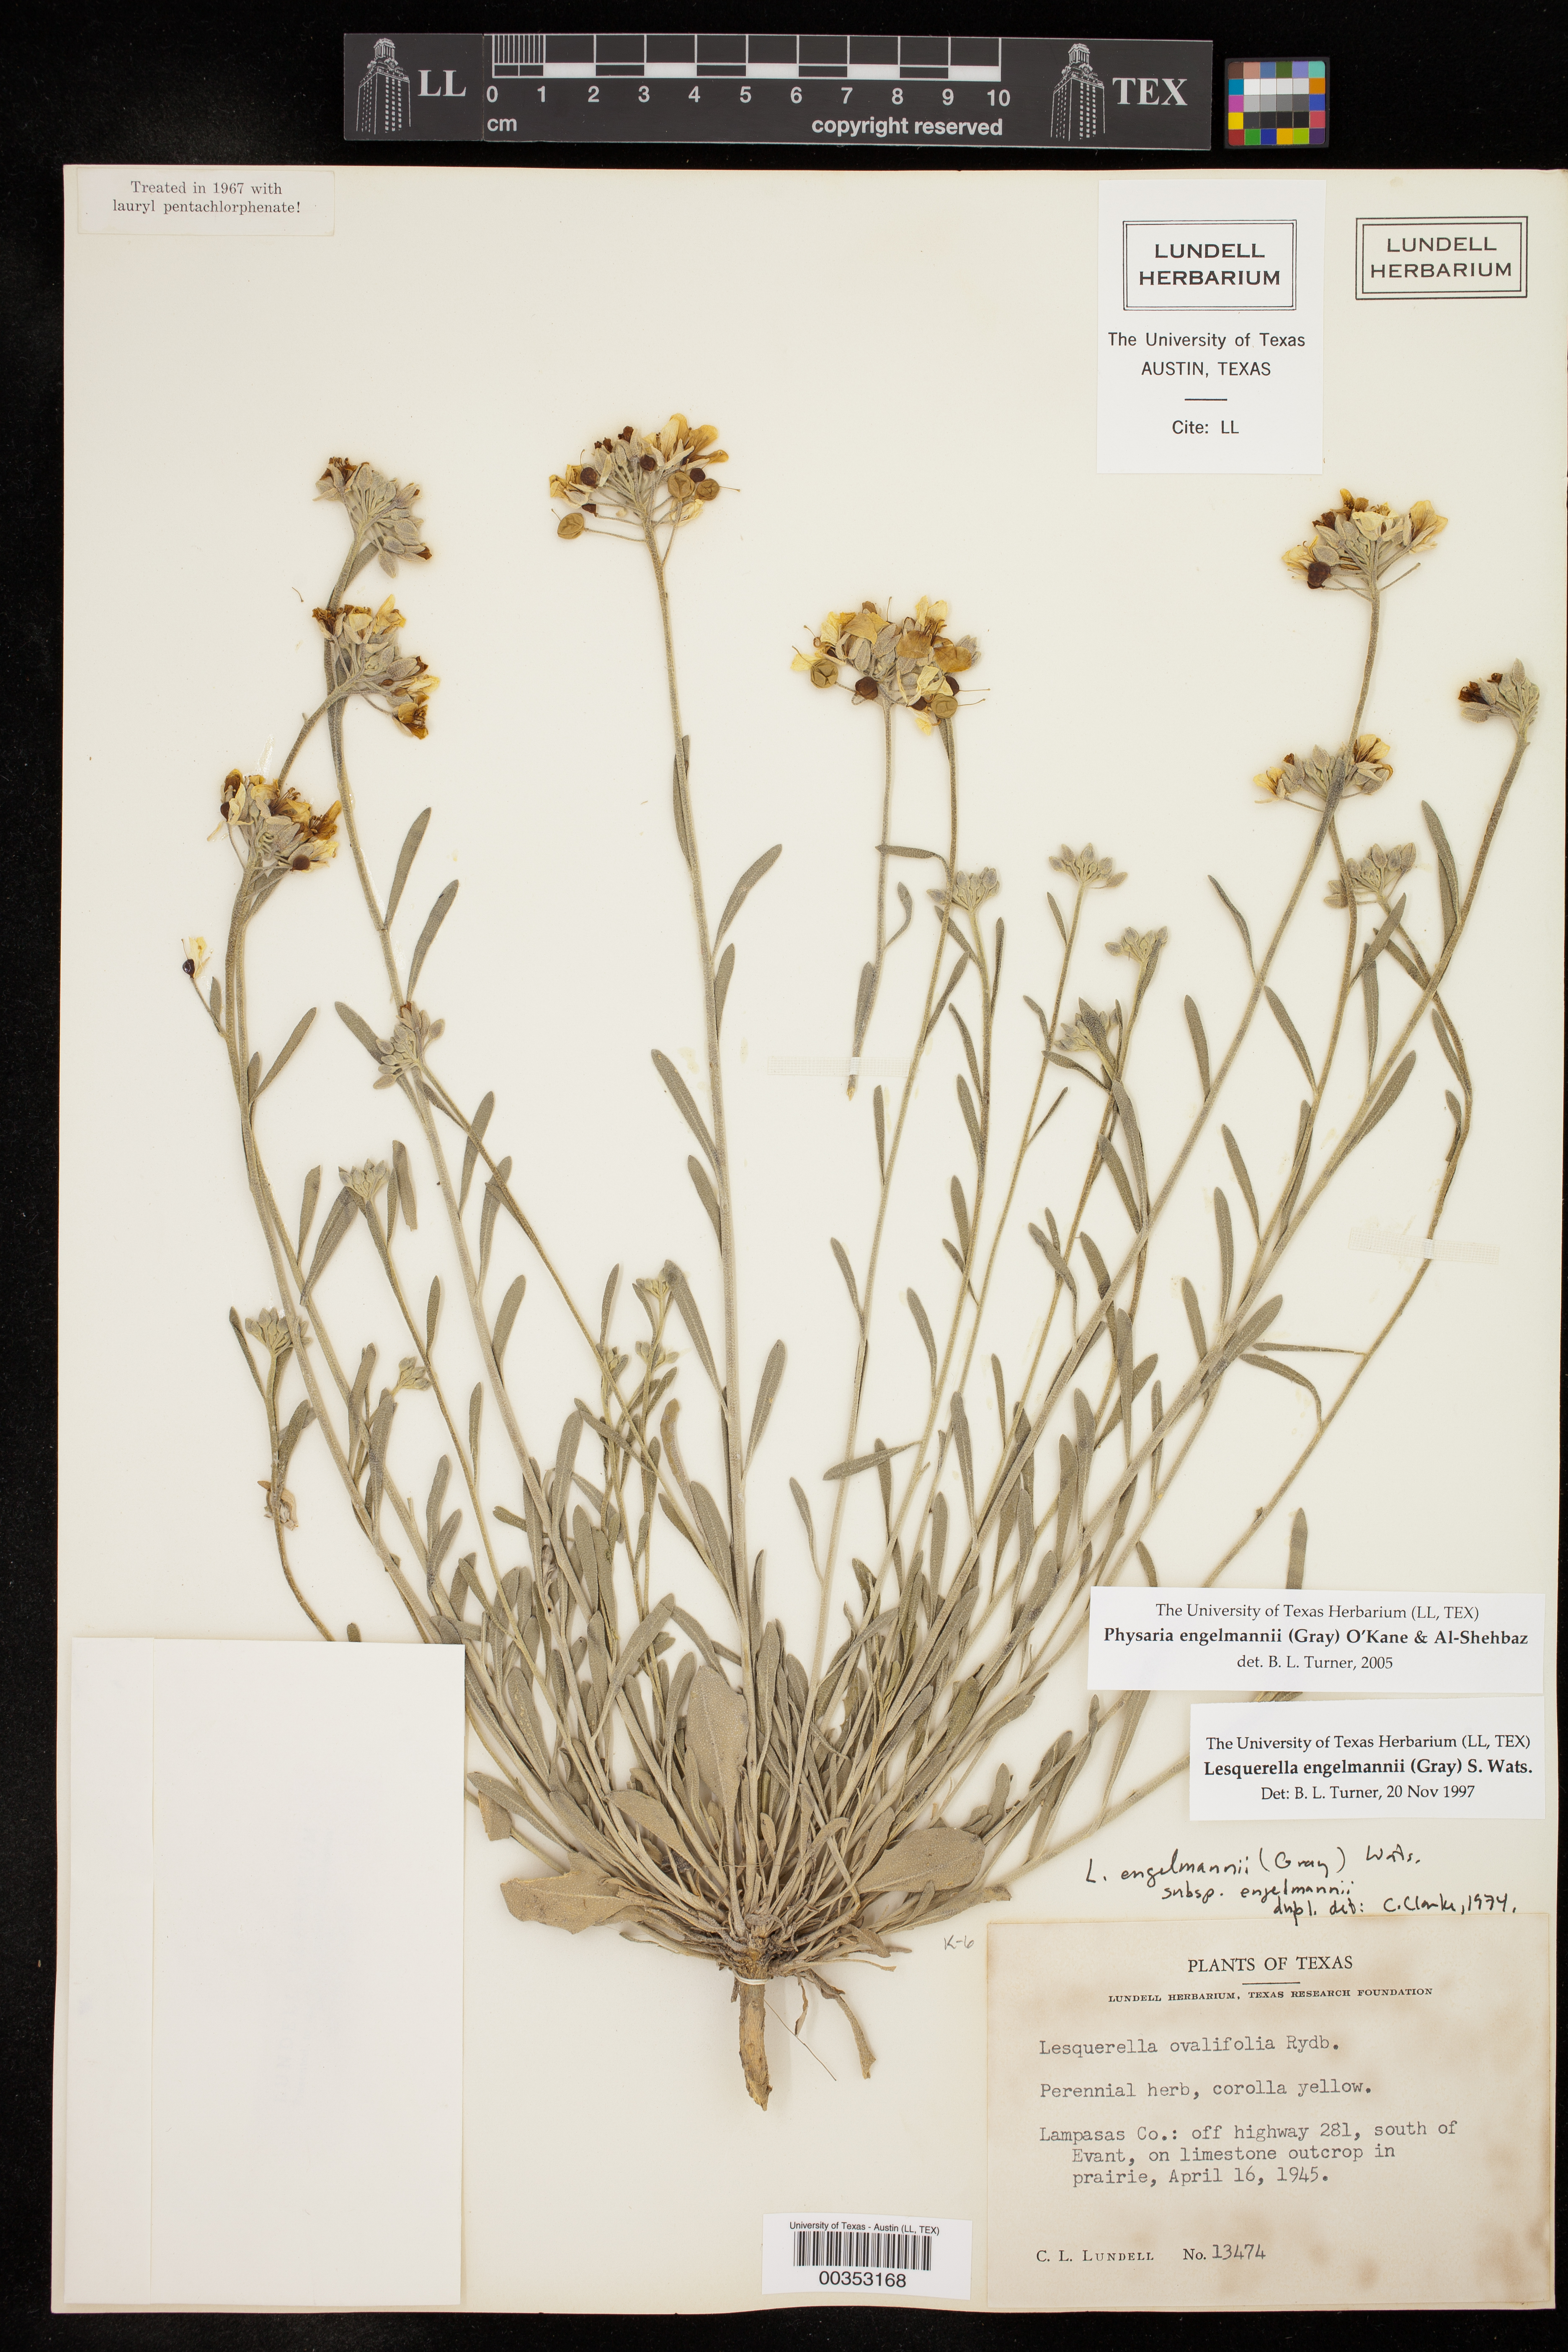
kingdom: Plantae
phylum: Tracheophyta
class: Magnoliopsida
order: Brassicales
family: Brassicaceae
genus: Physaria
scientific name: Physaria engelmannii
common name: Engelmann's bladderpod
